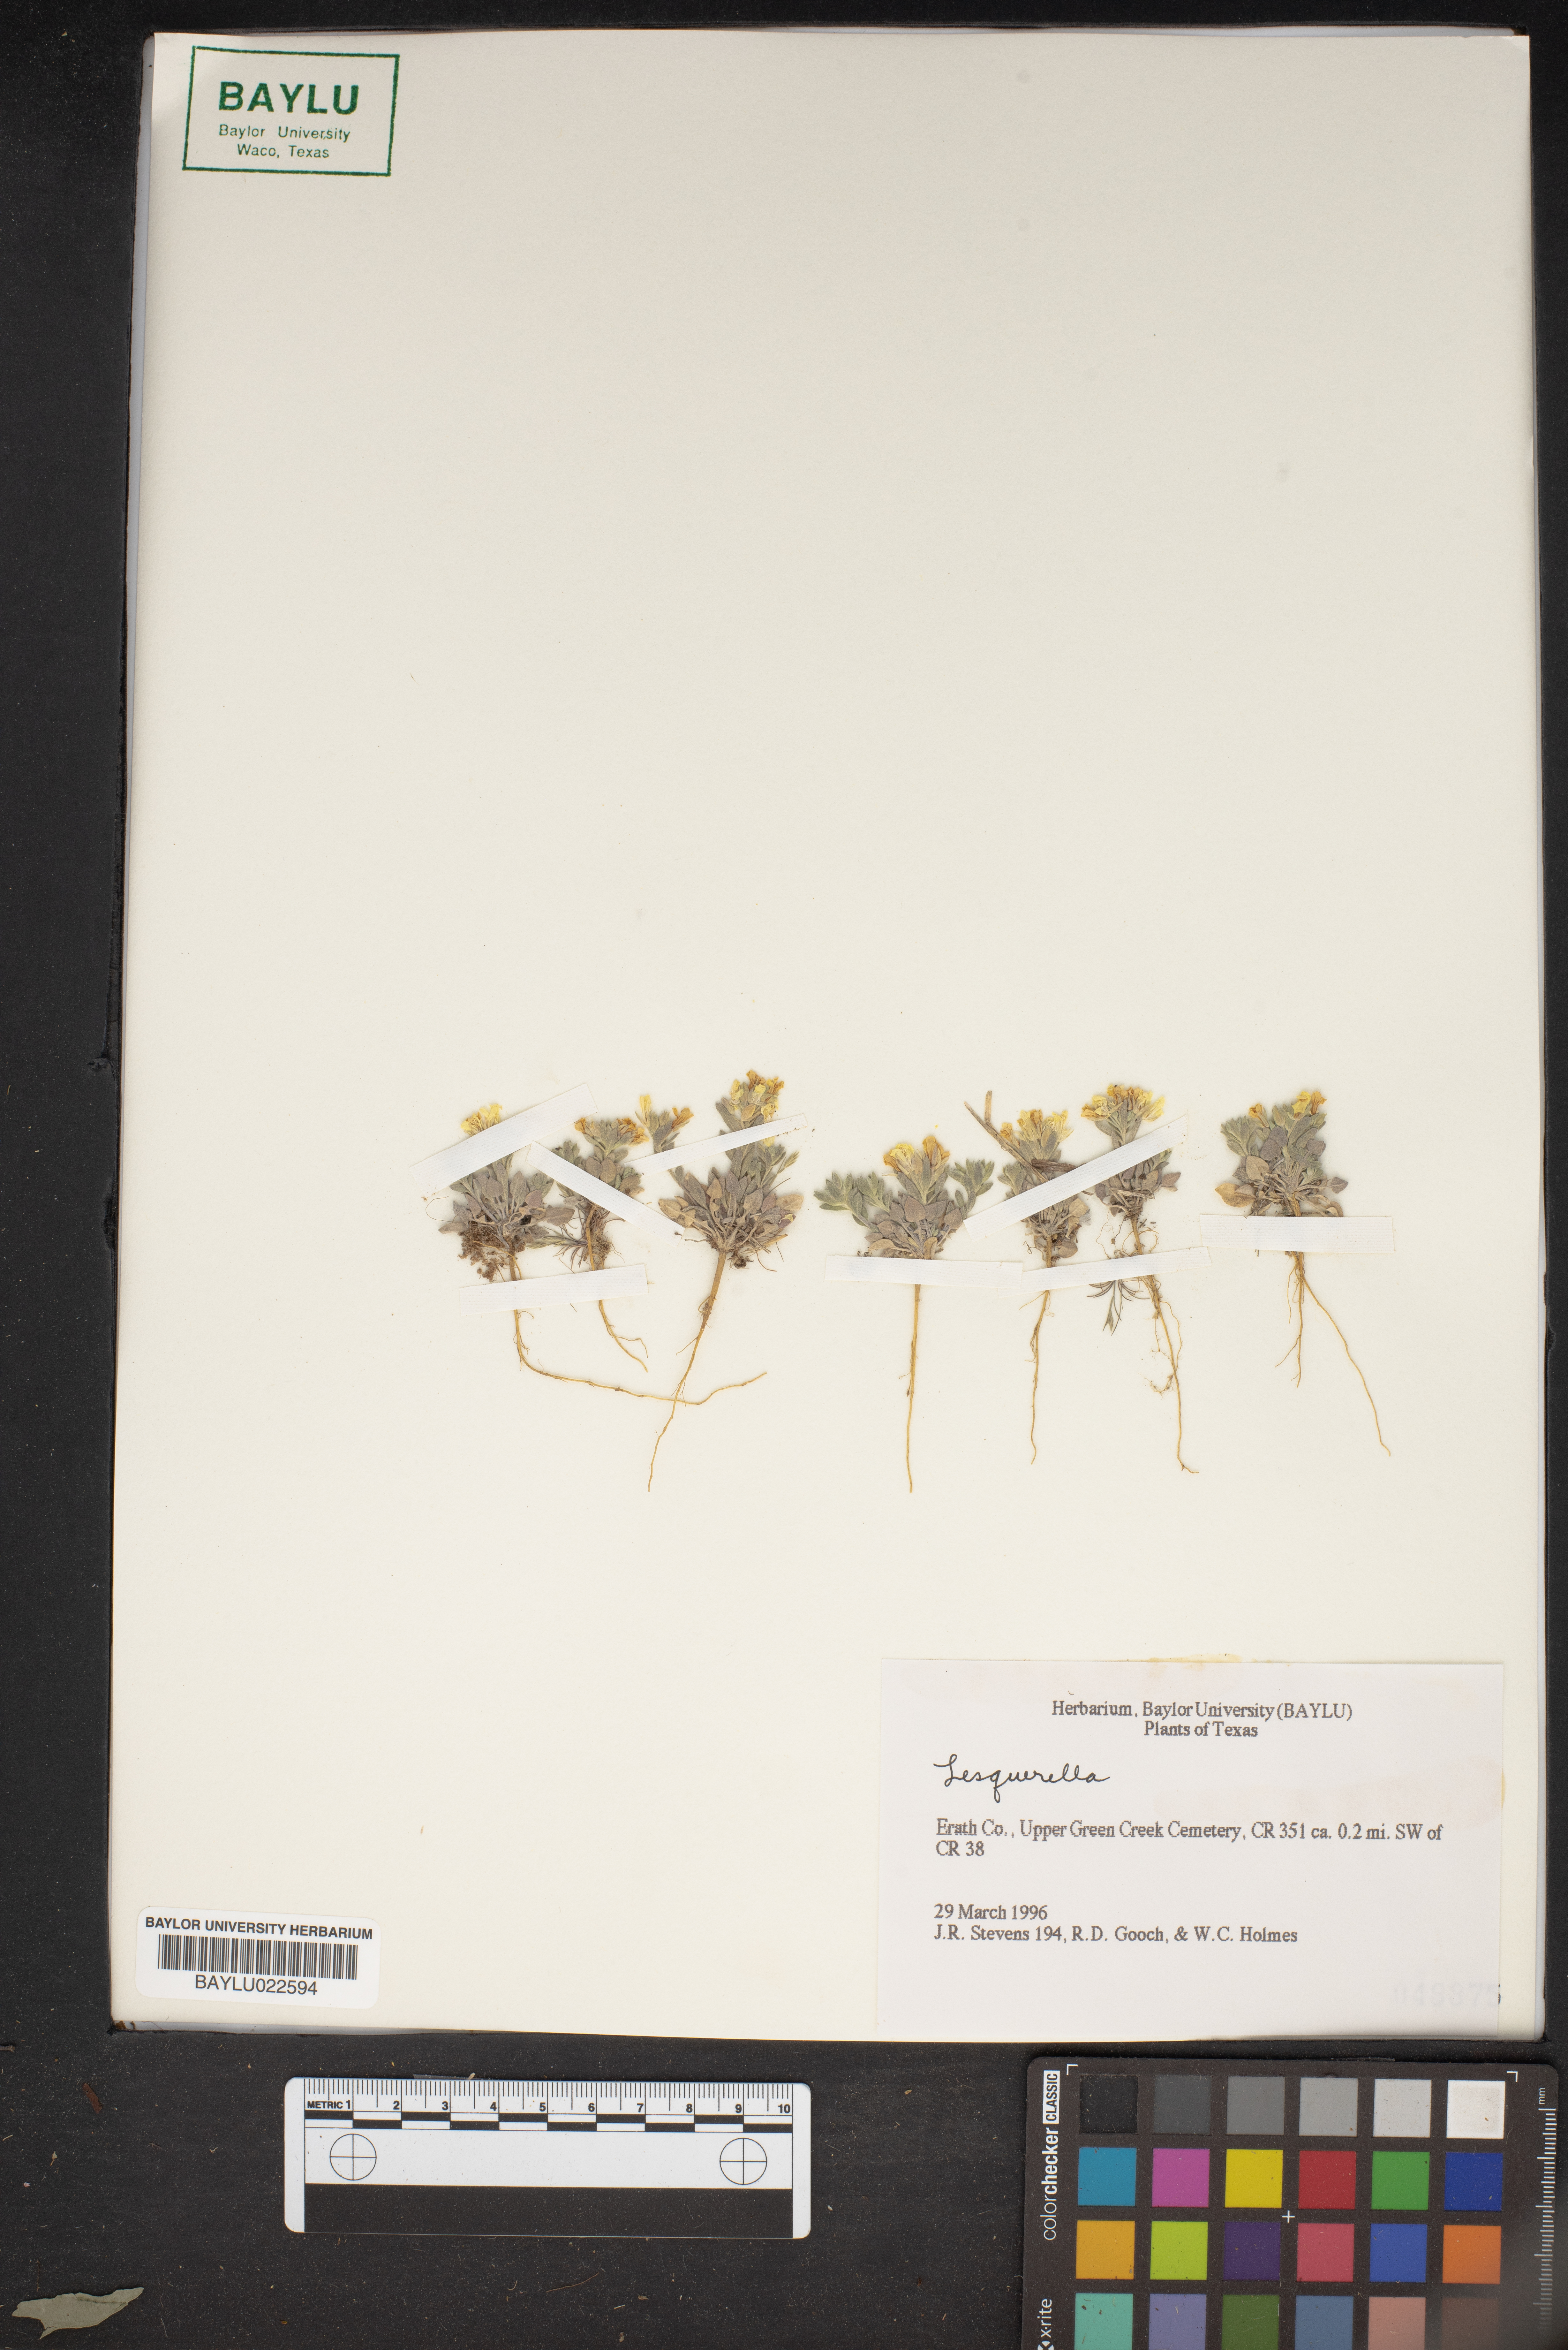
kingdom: Chromista
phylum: Cercozoa
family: Psammonobiotidae
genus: Lesquerella
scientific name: Lesquerella
